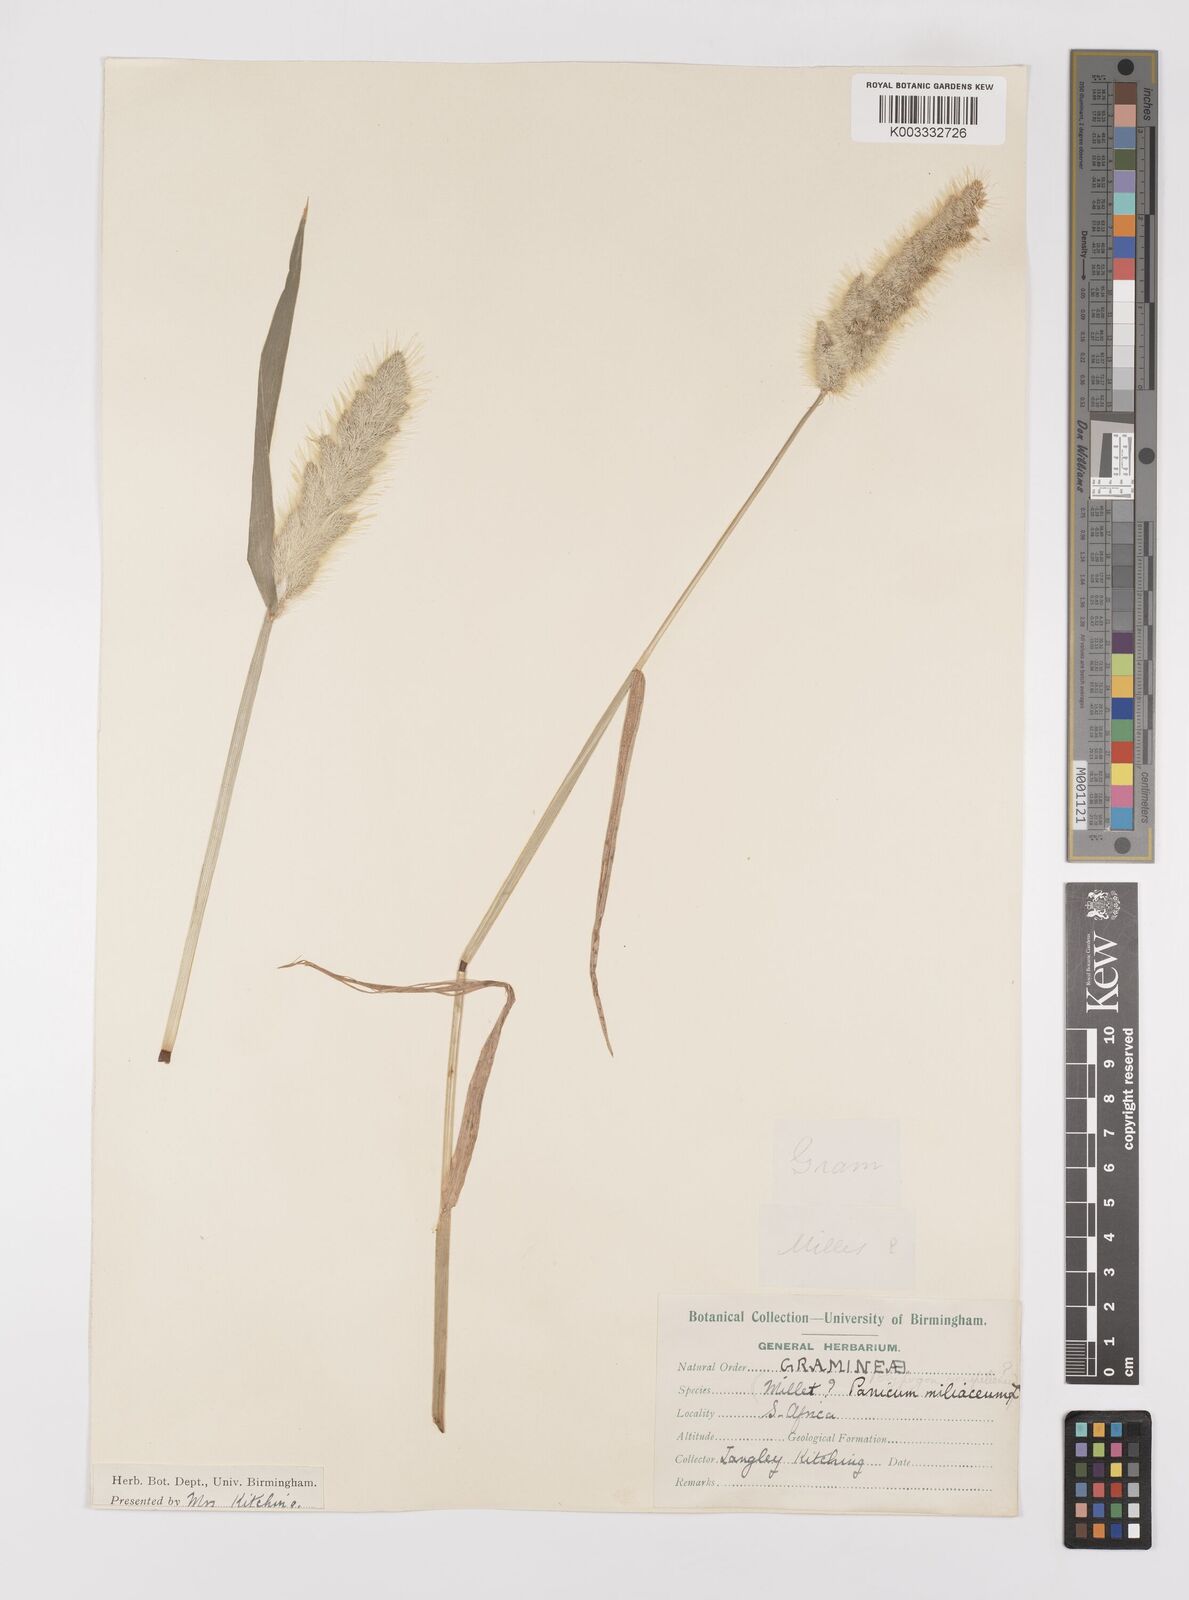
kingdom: Plantae
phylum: Tracheophyta
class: Liliopsida
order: Poales
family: Poaceae
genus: Polypogon
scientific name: Polypogon monspeliensis
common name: Annual rabbitsfoot grass
